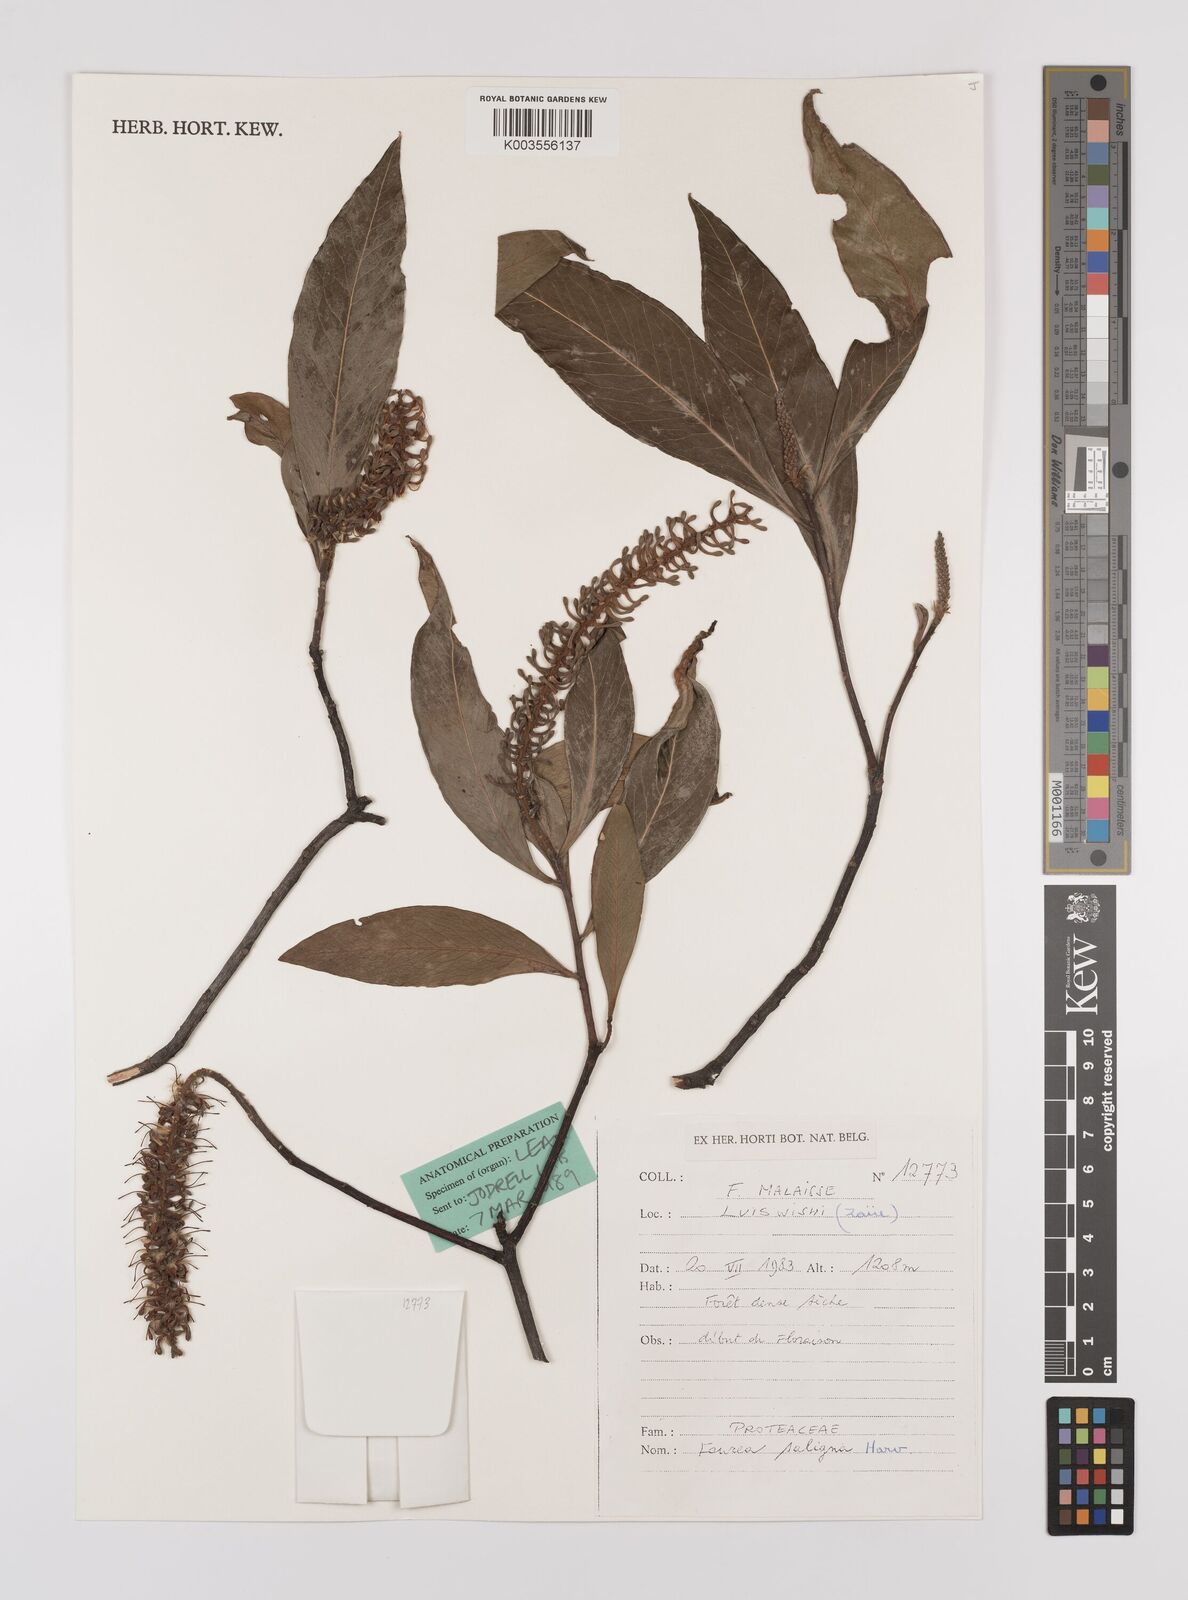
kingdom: Plantae
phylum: Tracheophyta
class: Magnoliopsida
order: Proteales
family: Proteaceae
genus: Faurea
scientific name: Faurea saligna
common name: African bean
